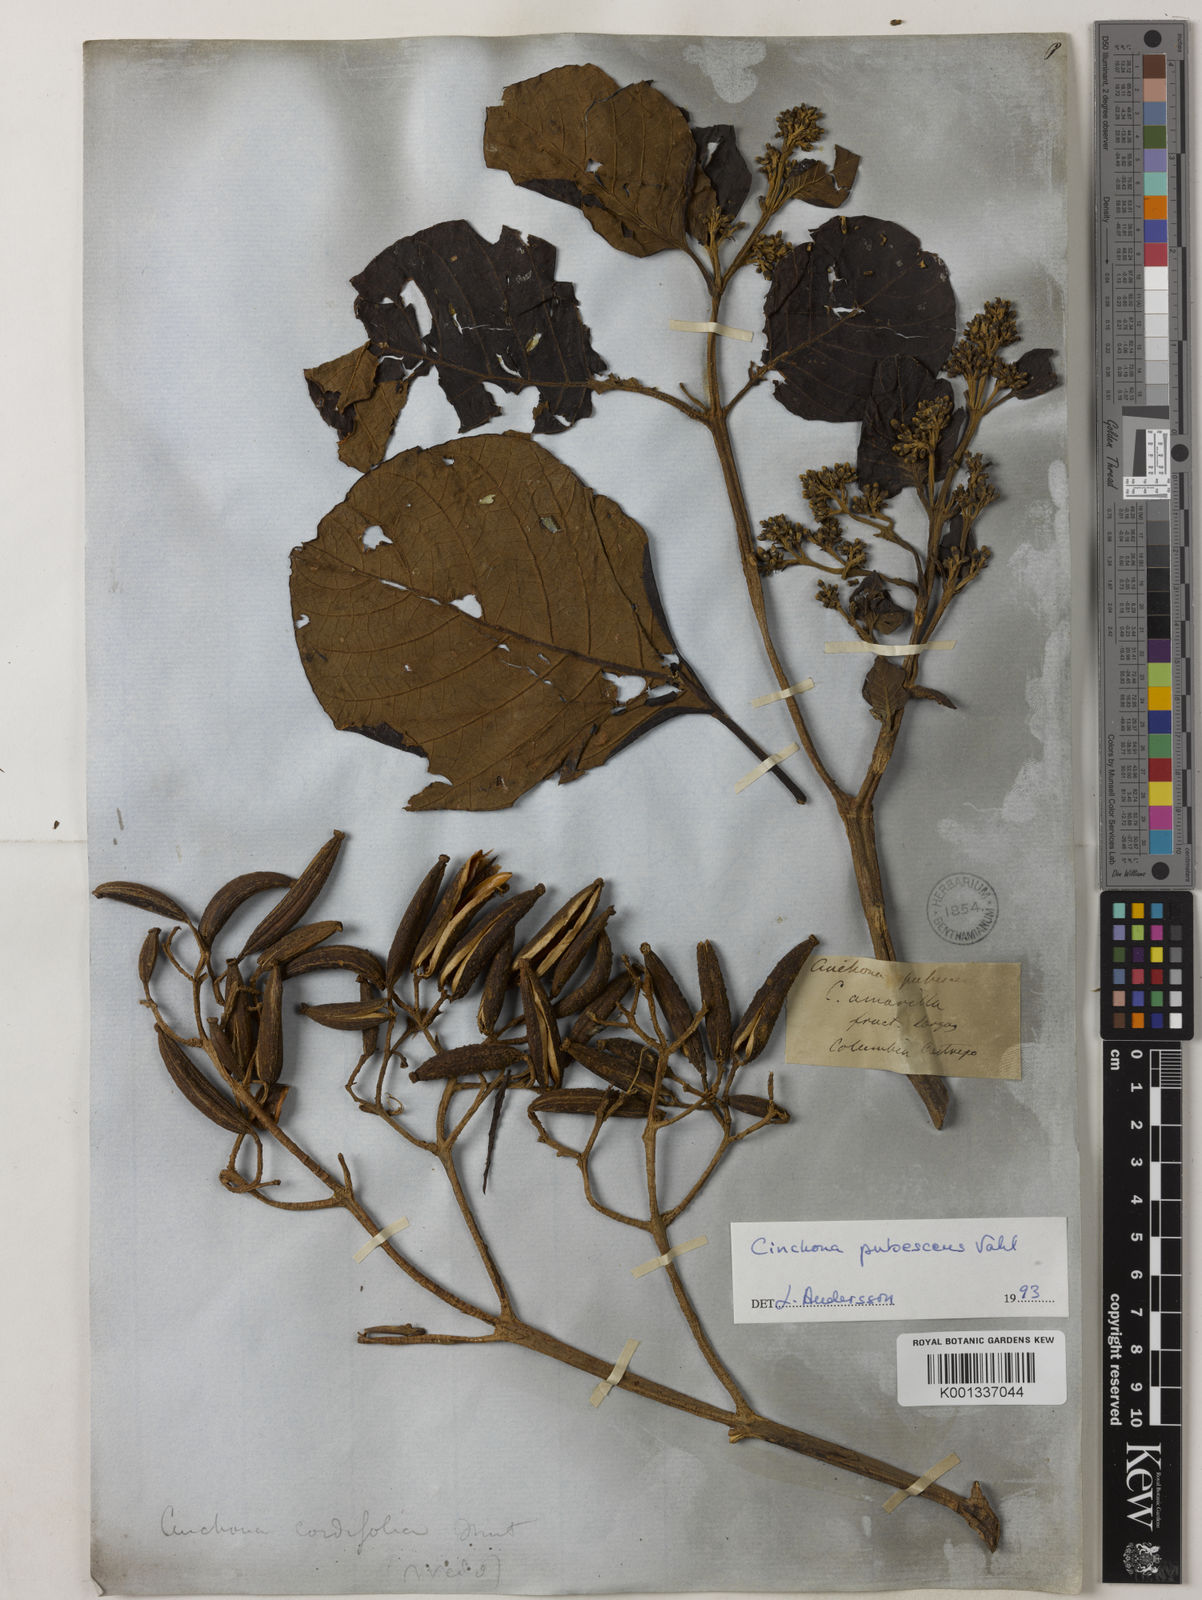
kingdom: Plantae
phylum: Tracheophyta
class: Magnoliopsida
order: Gentianales
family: Rubiaceae
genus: Cinchona
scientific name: Cinchona pubescens
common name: Quinine
